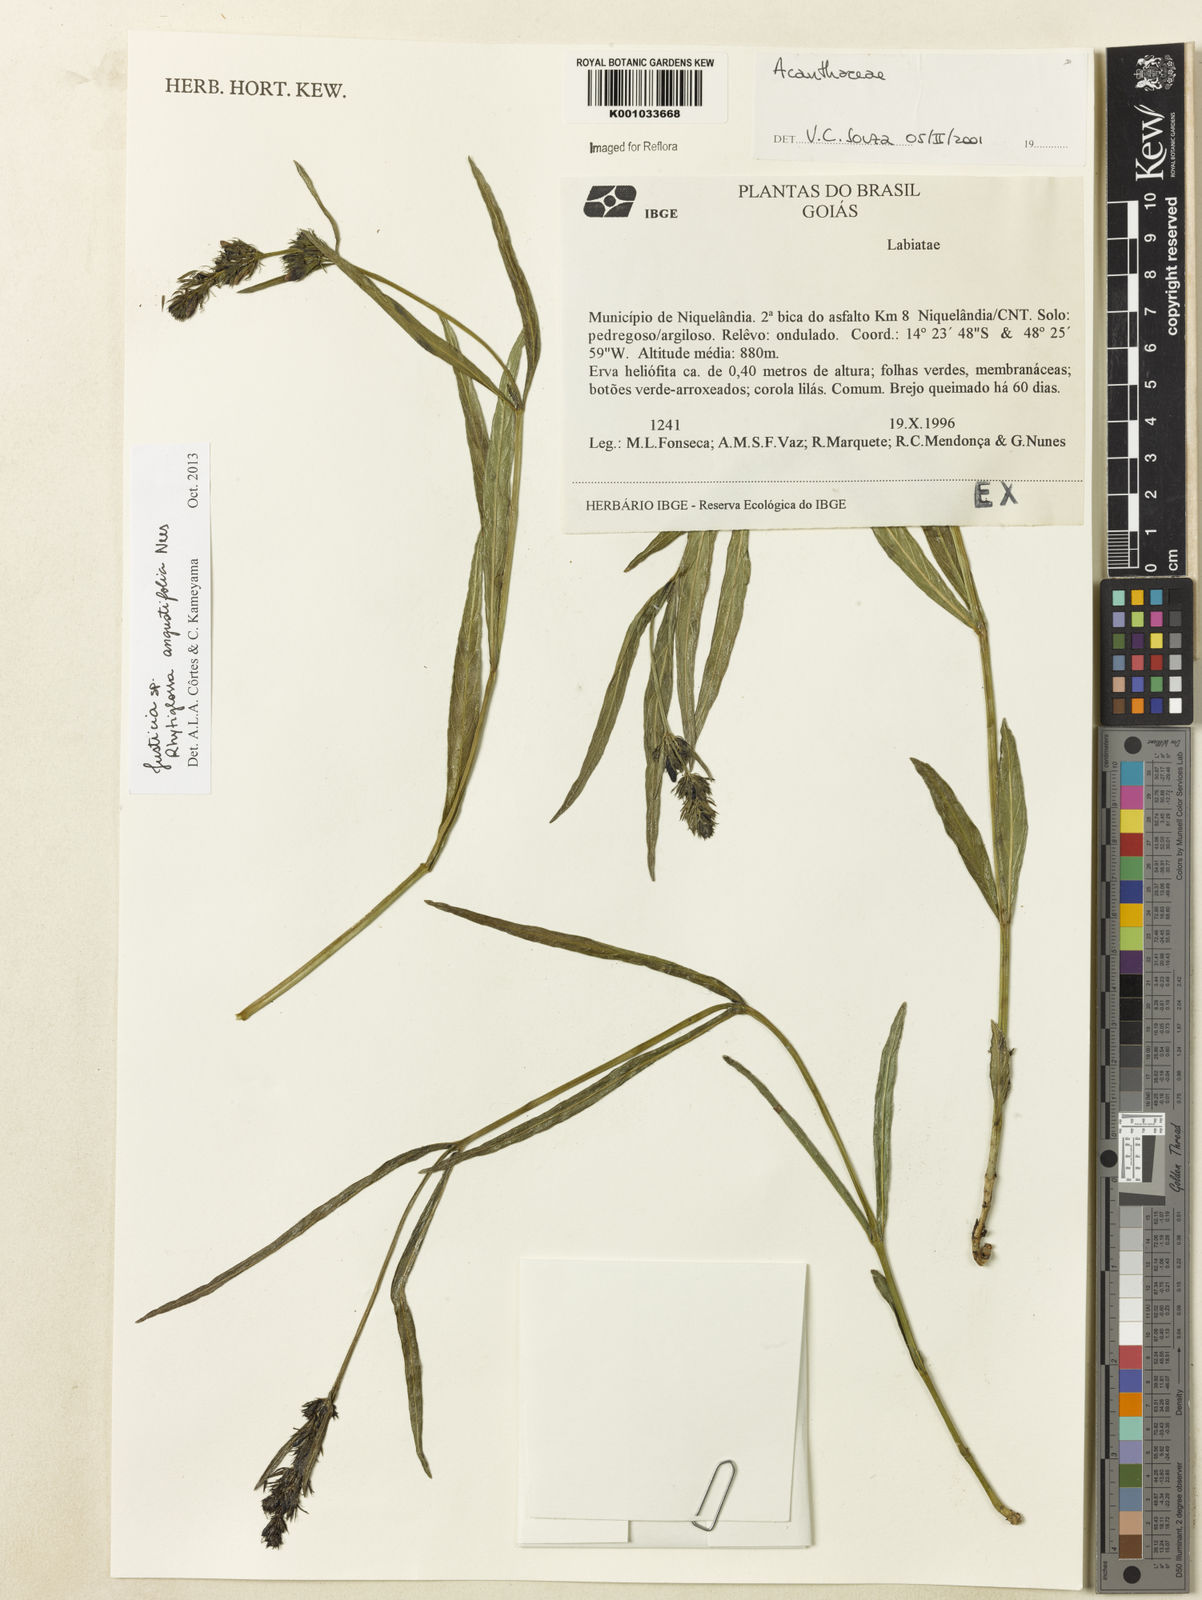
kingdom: Plantae
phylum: Tracheophyta
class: Magnoliopsida
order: Lamiales
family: Acanthaceae
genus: Justicia
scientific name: Justicia
